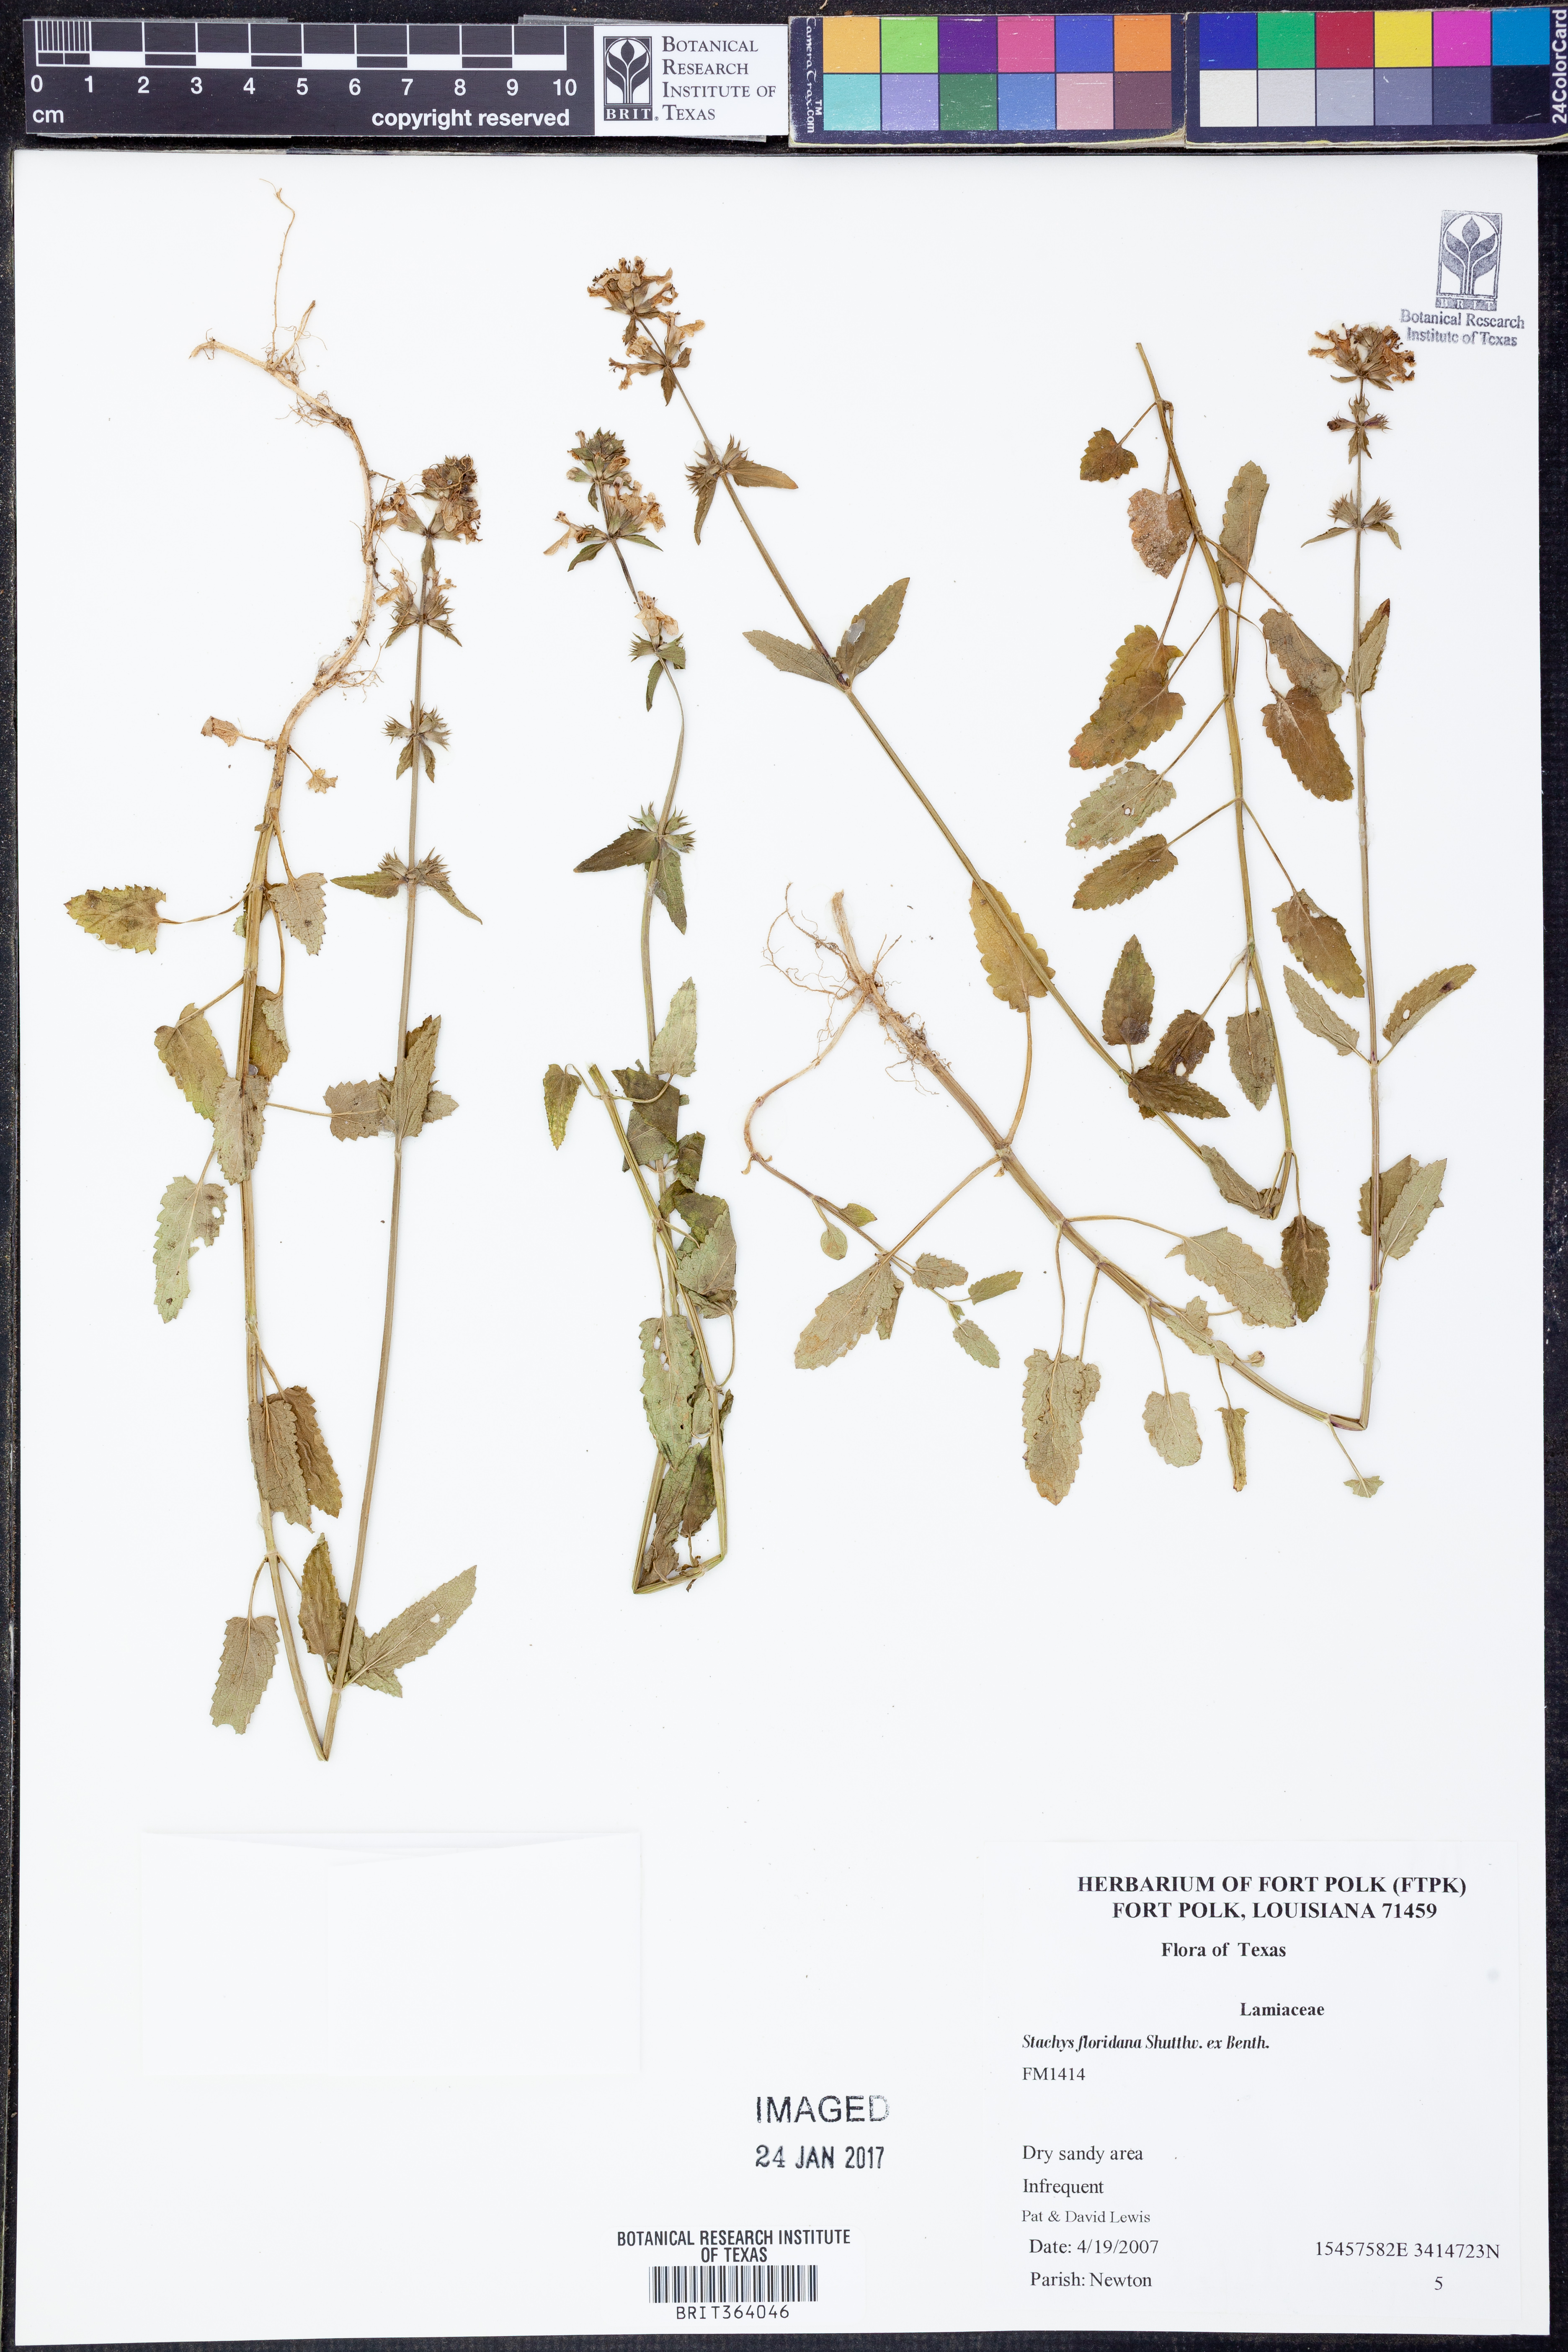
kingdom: Plantae
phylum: Tracheophyta
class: Magnoliopsida
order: Lamiales
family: Lamiaceae
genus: Stachys
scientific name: Stachys floridana
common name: Florida betony
